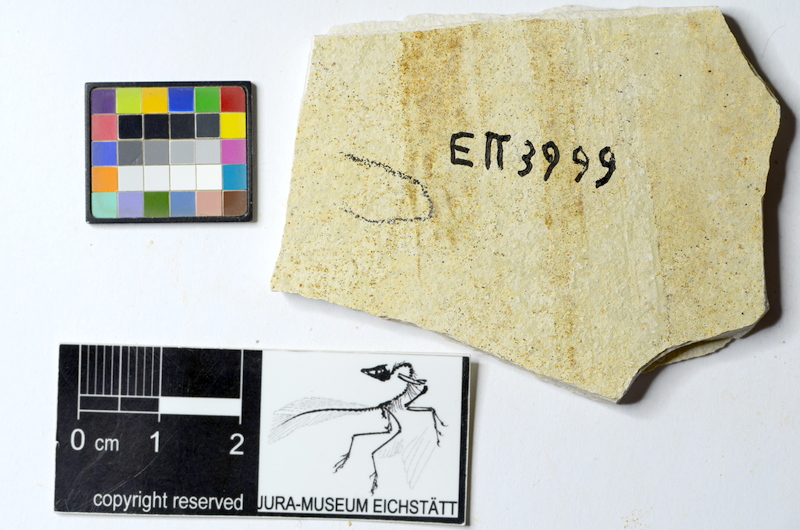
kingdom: Animalia
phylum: Chordata
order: Salmoniformes
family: Orthogonikleithridae
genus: Orthogonikleithrus
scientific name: Orthogonikleithrus hoelli
